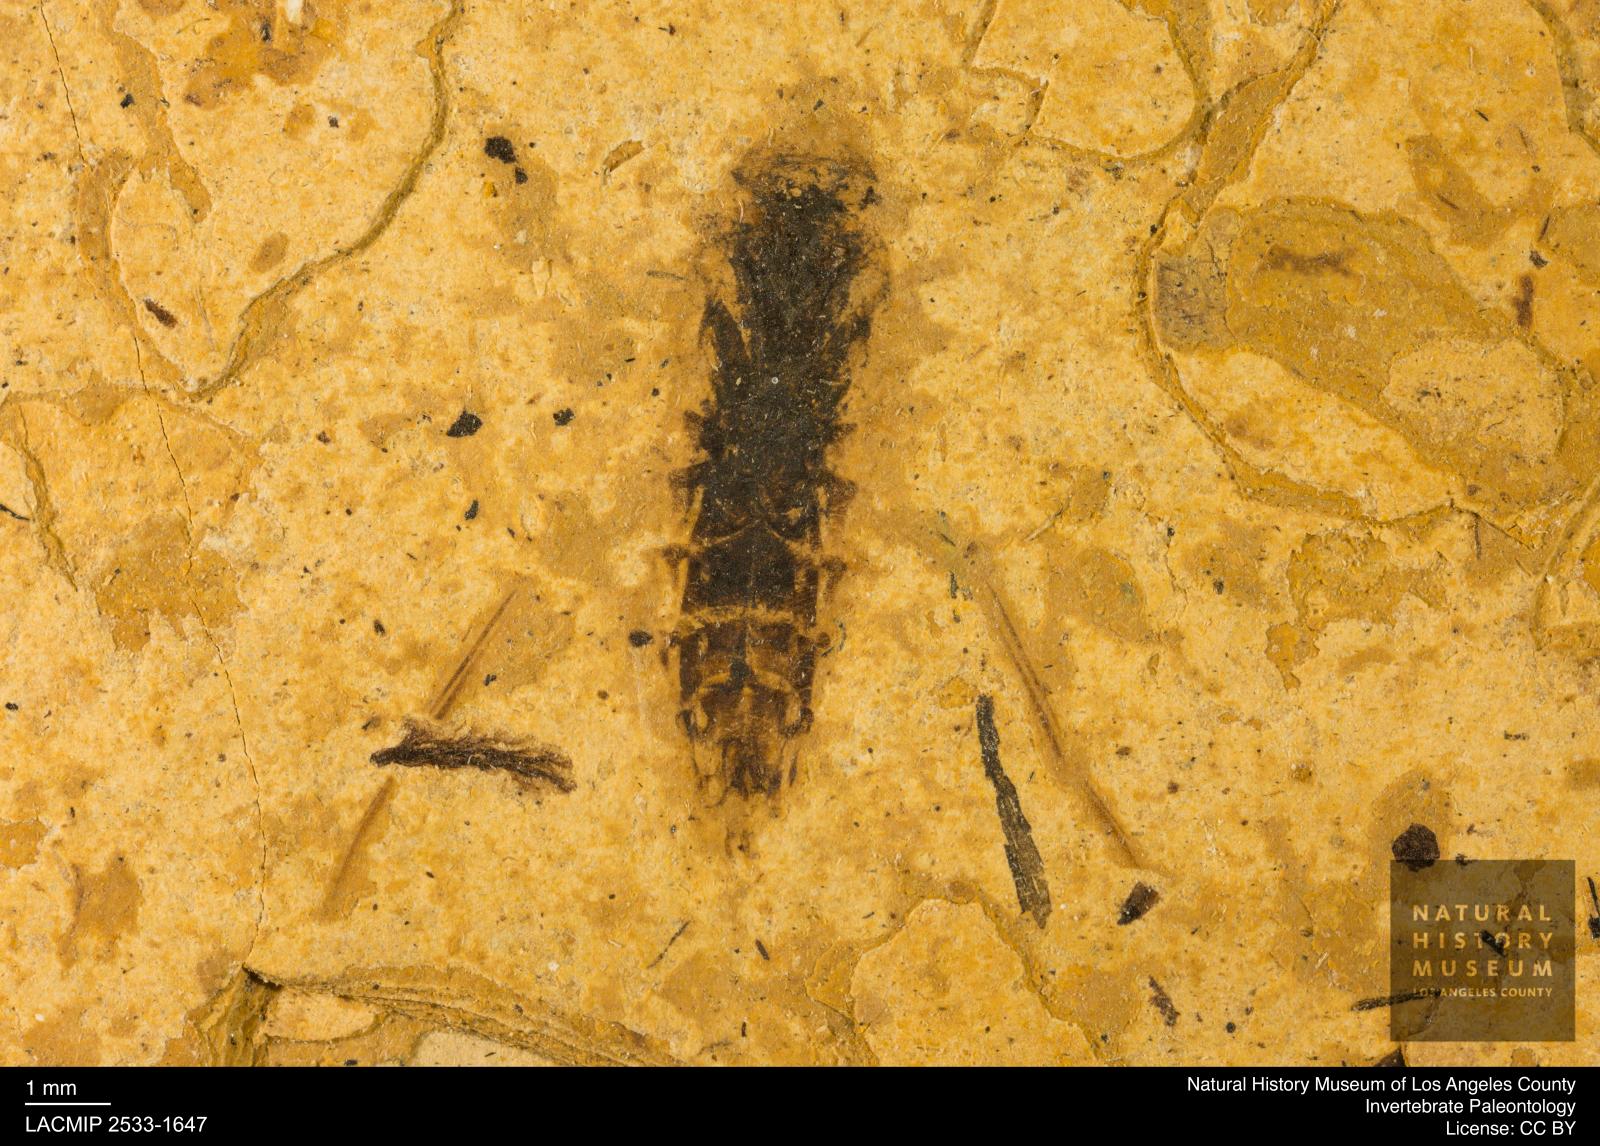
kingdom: Animalia
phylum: Arthropoda
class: Insecta
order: Hemiptera
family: Notonectidae
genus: Notonecta
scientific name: Notonecta
